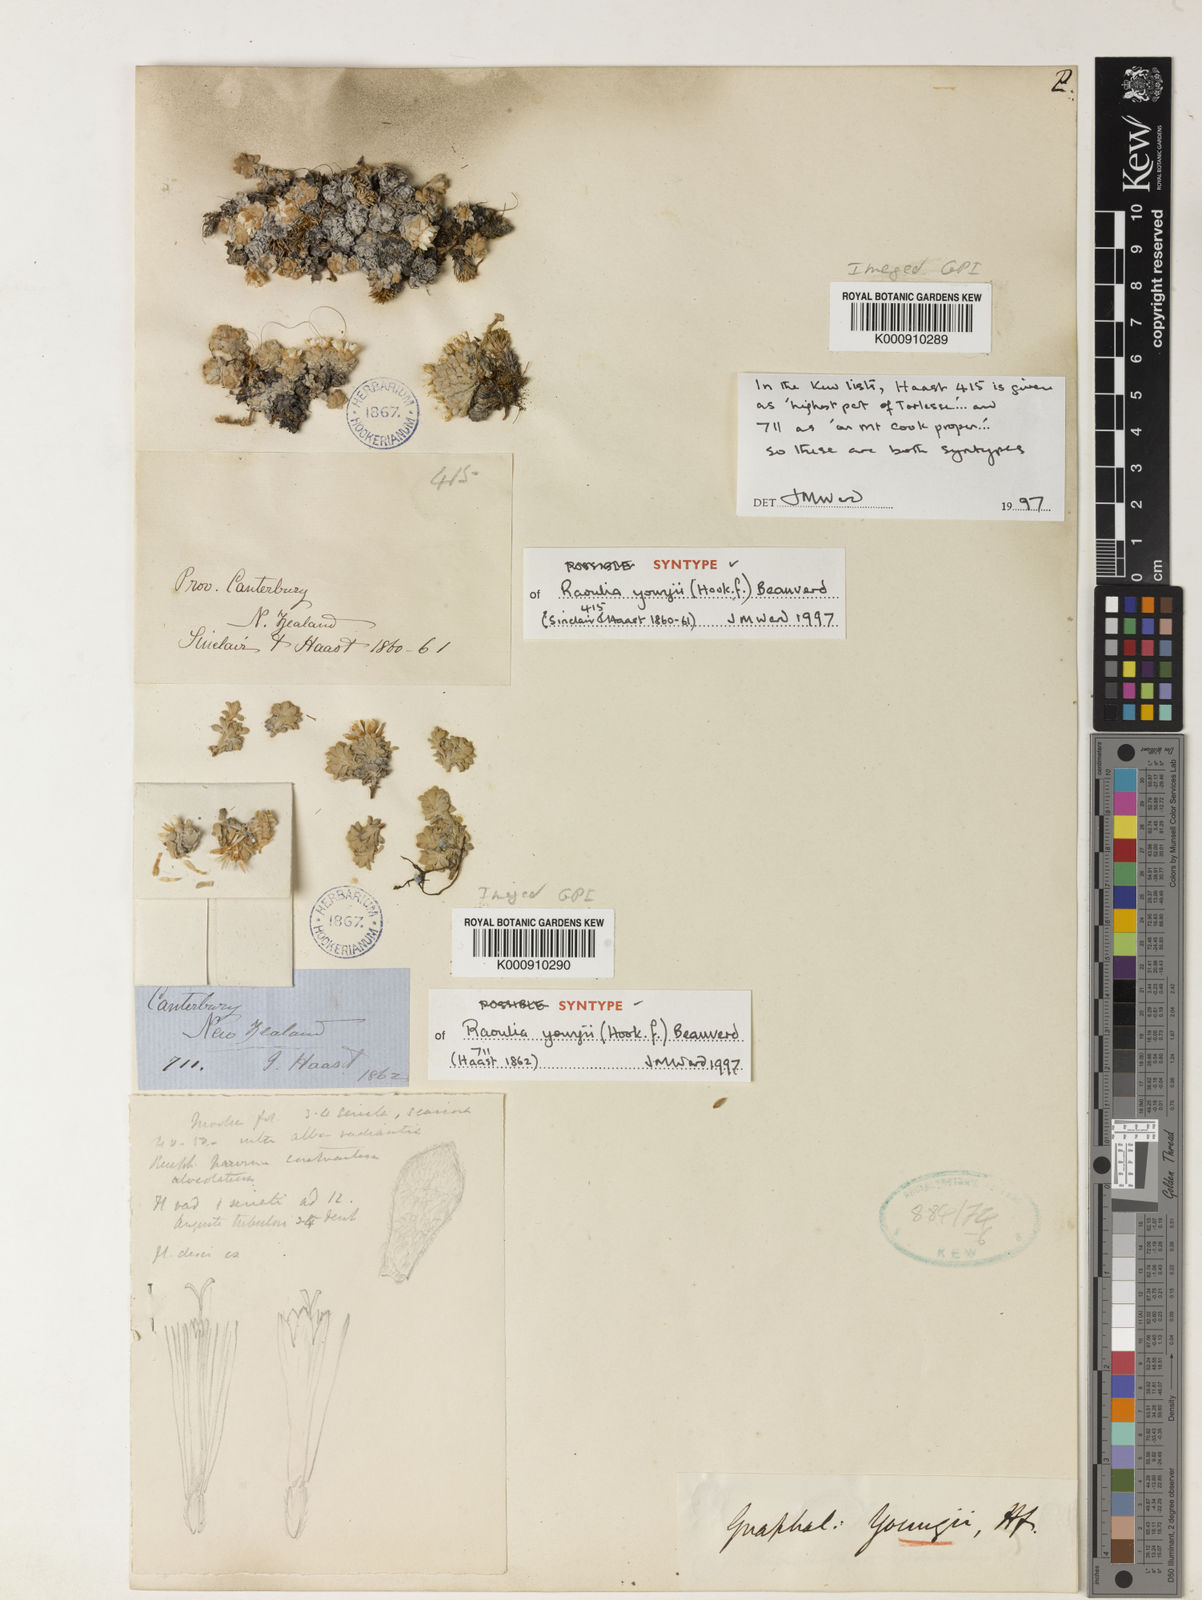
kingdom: Plantae
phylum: Tracheophyta
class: Magnoliopsida
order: Asterales
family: Asteraceae
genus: Raoulia
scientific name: Raoulia youngii
